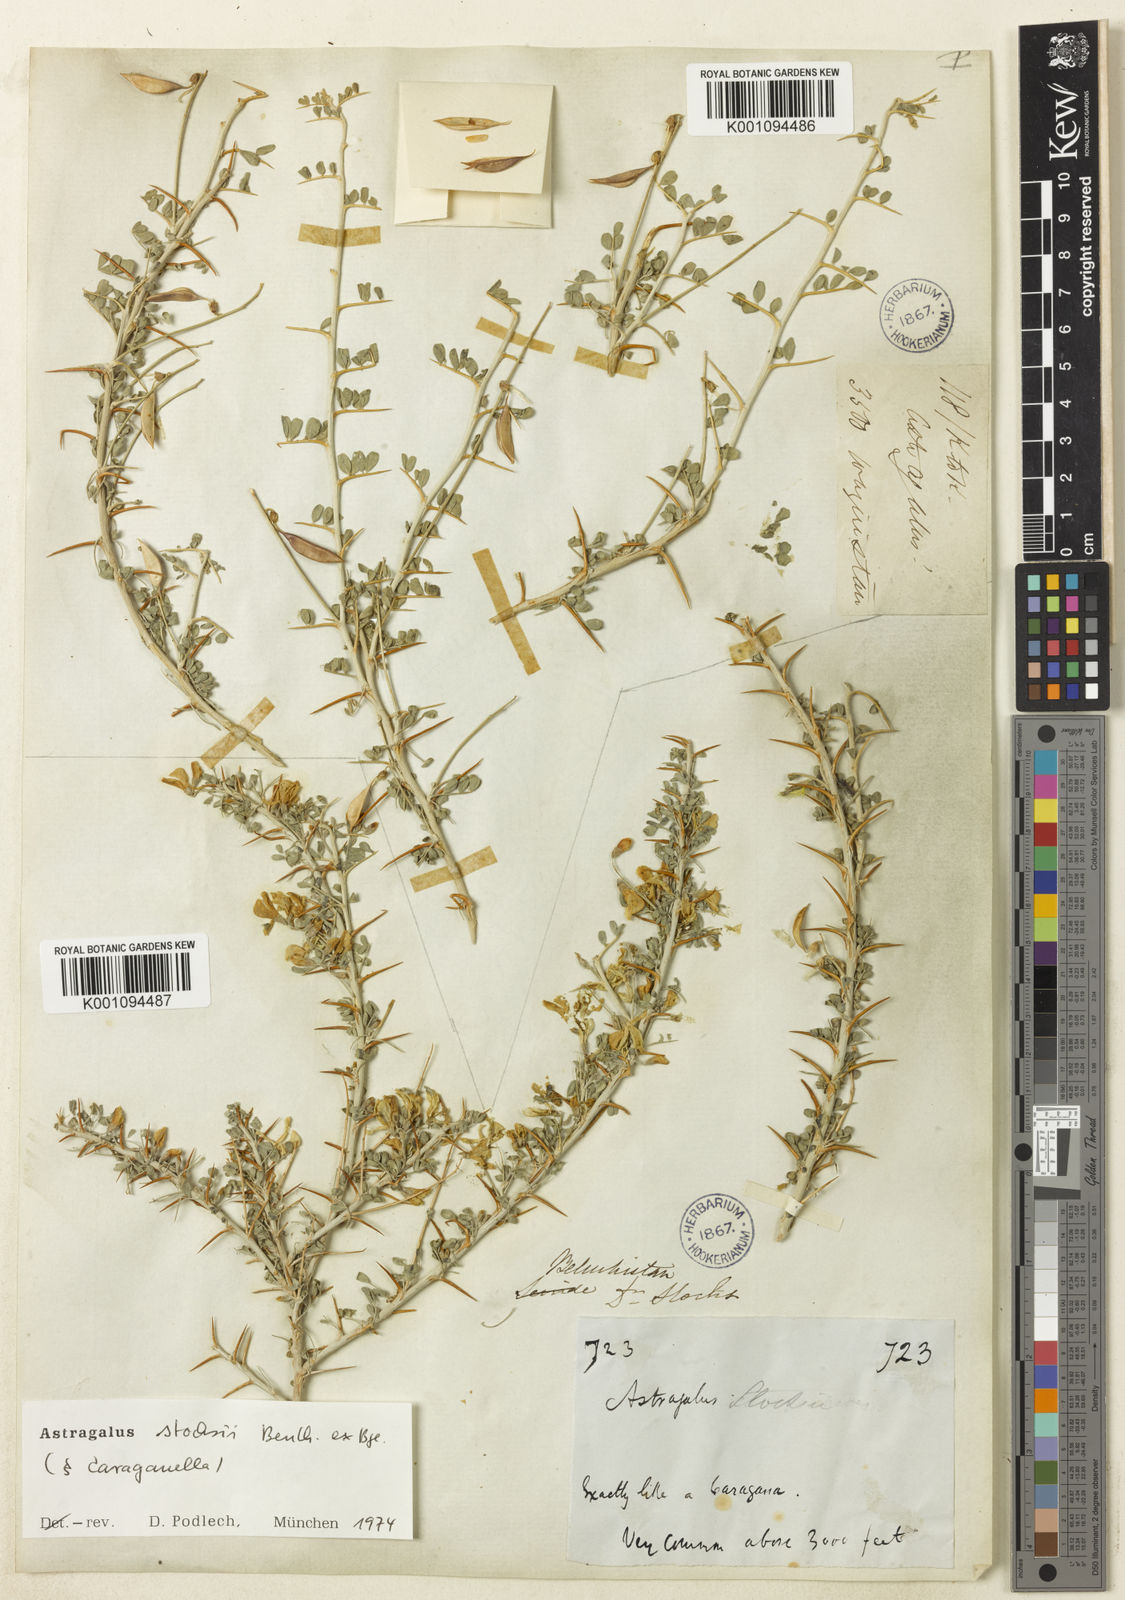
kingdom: Plantae
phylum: Tracheophyta
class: Magnoliopsida
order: Fabales
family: Fabaceae
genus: Astragalus
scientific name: Astragalus
